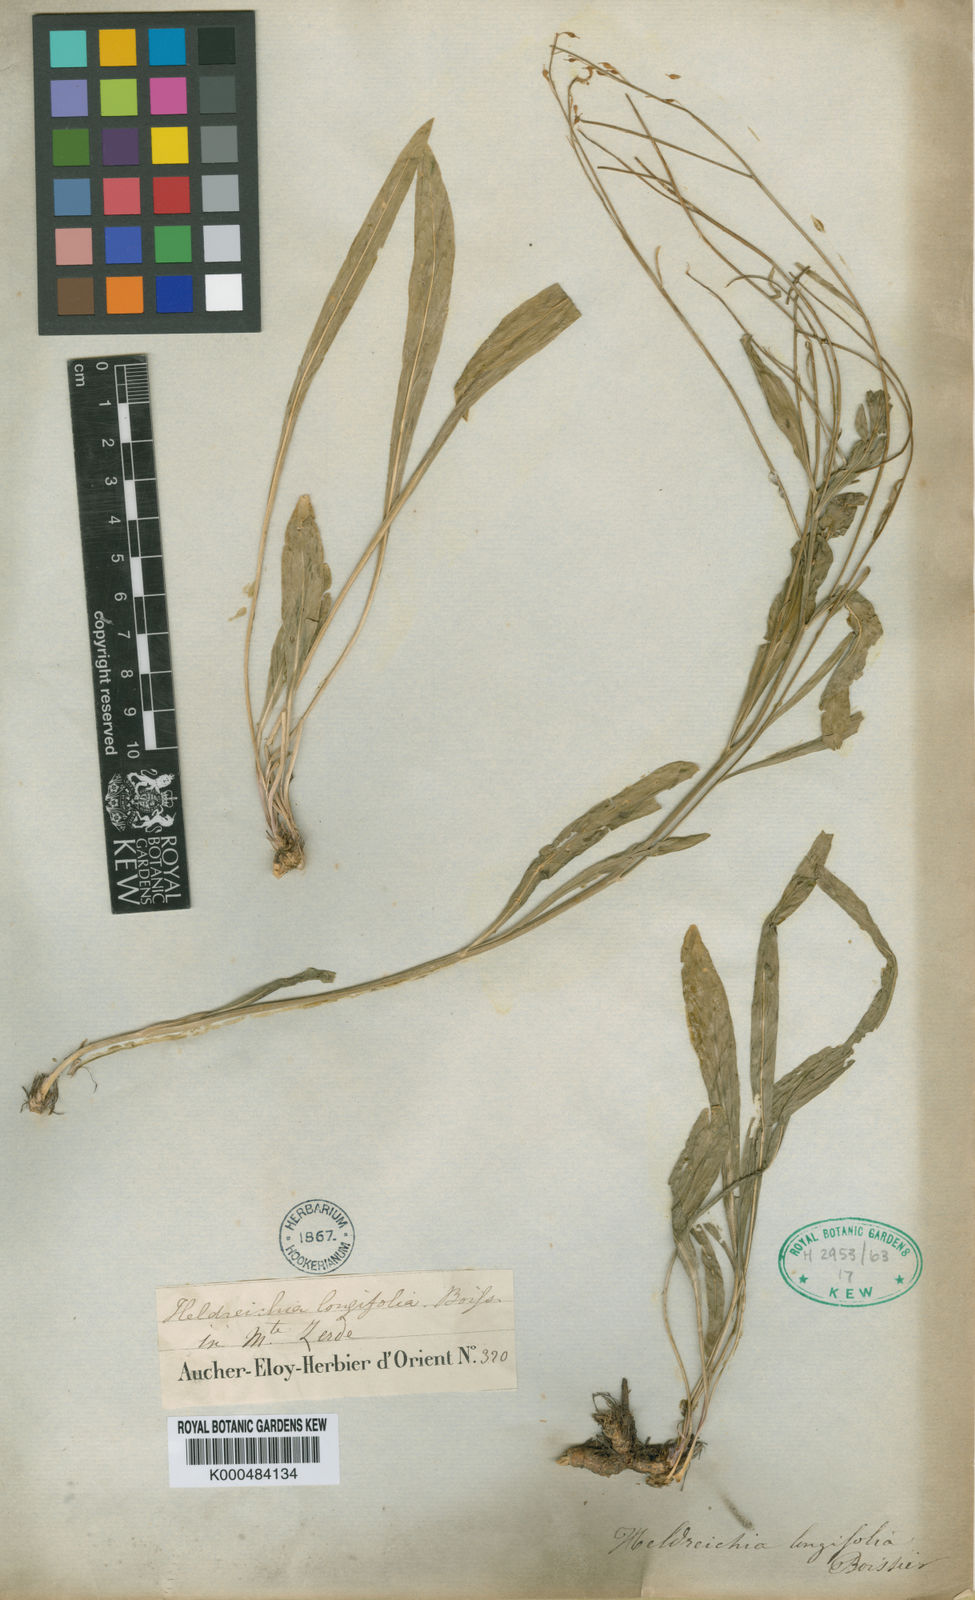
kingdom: Plantae
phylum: Tracheophyta
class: Magnoliopsida
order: Brassicales
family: Brassicaceae
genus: Lepidium
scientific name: Lepidium longifolium
